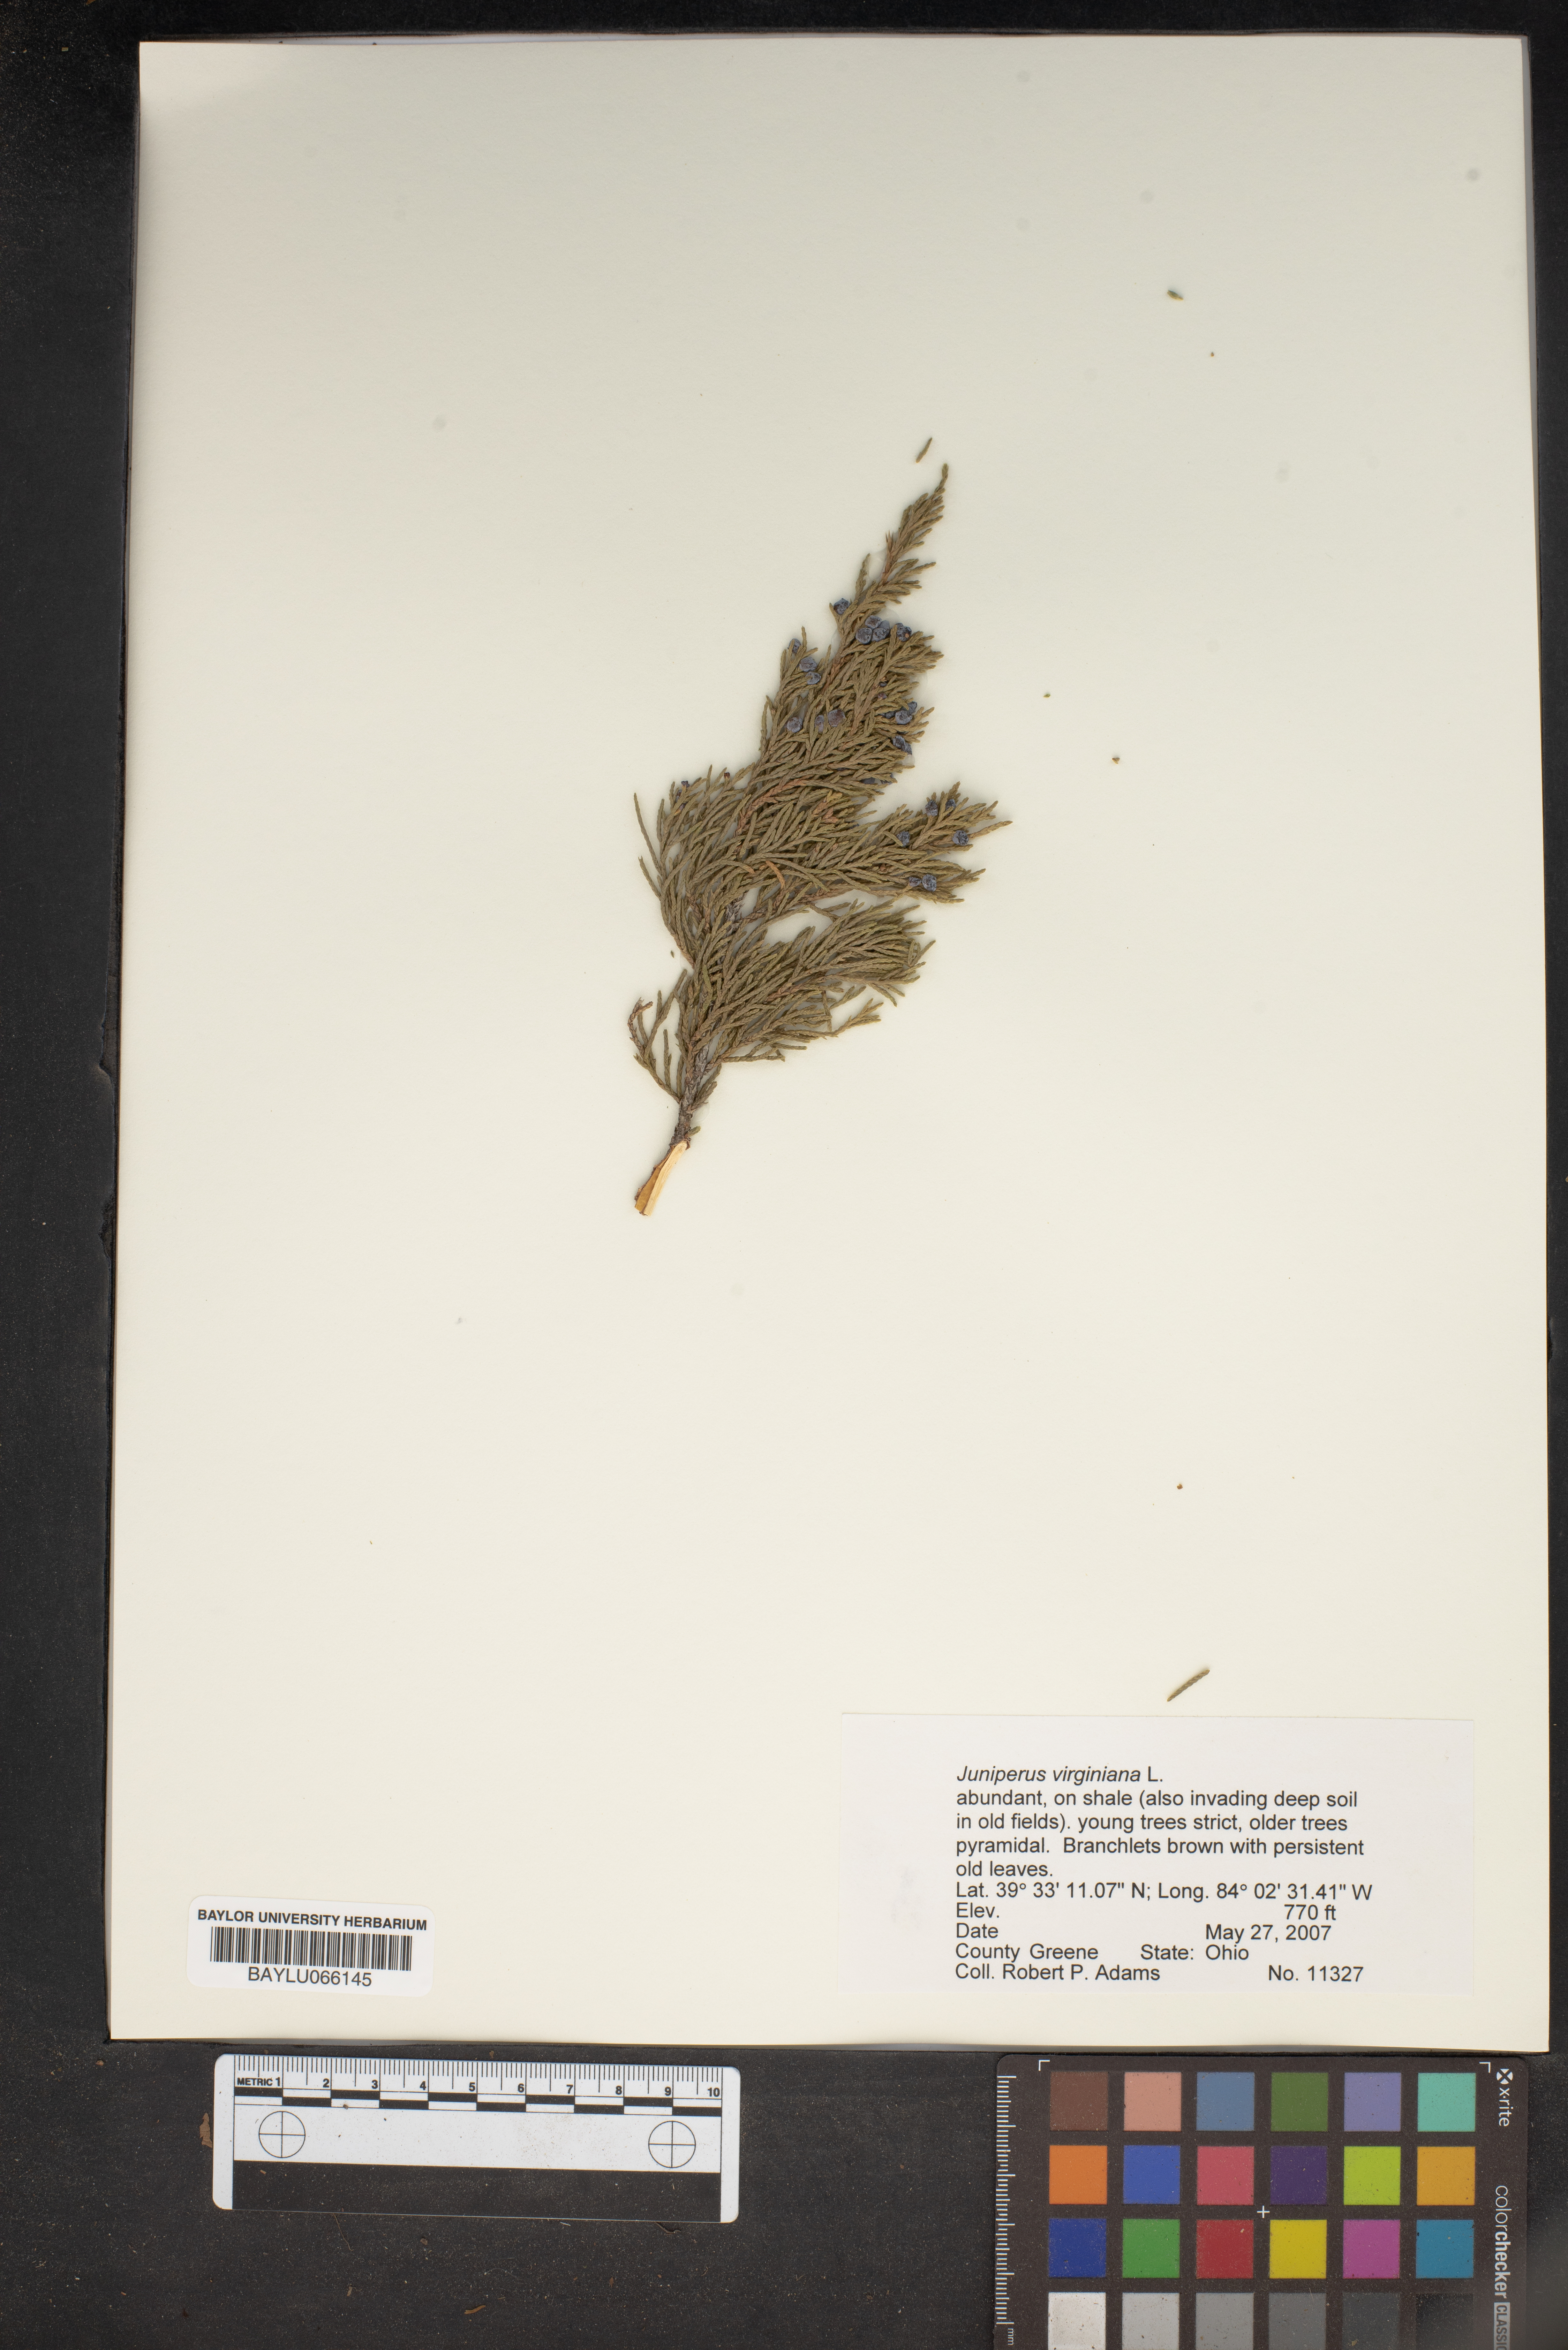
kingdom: Plantae
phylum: Tracheophyta
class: Pinopsida
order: Pinales
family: Cupressaceae
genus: Juniperus
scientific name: Juniperus virginiana
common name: Red juniper
